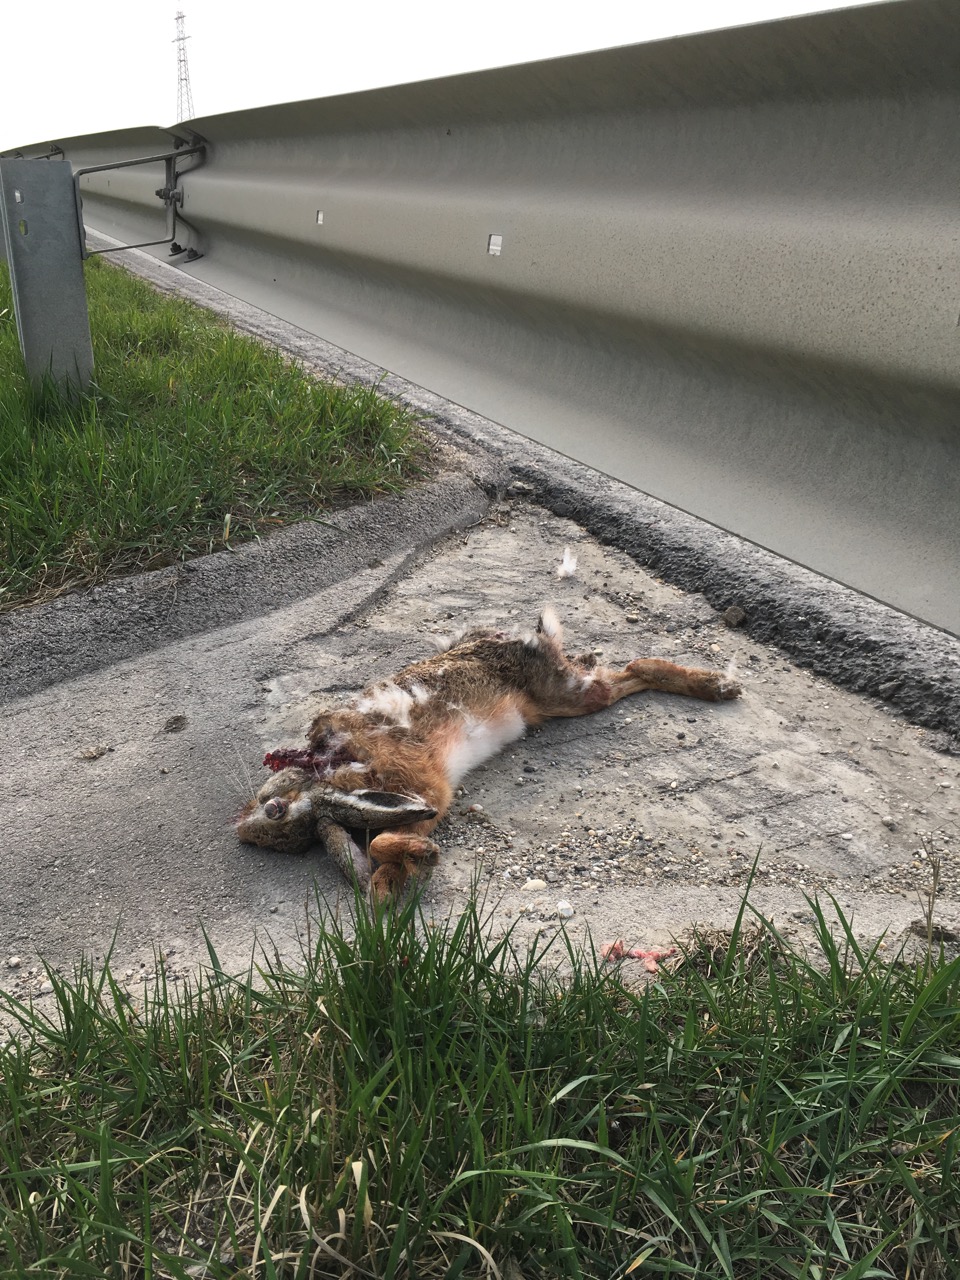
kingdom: Animalia
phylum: Chordata
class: Mammalia
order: Lagomorpha
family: Leporidae
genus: Lepus
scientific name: Lepus europaeus
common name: European hare
